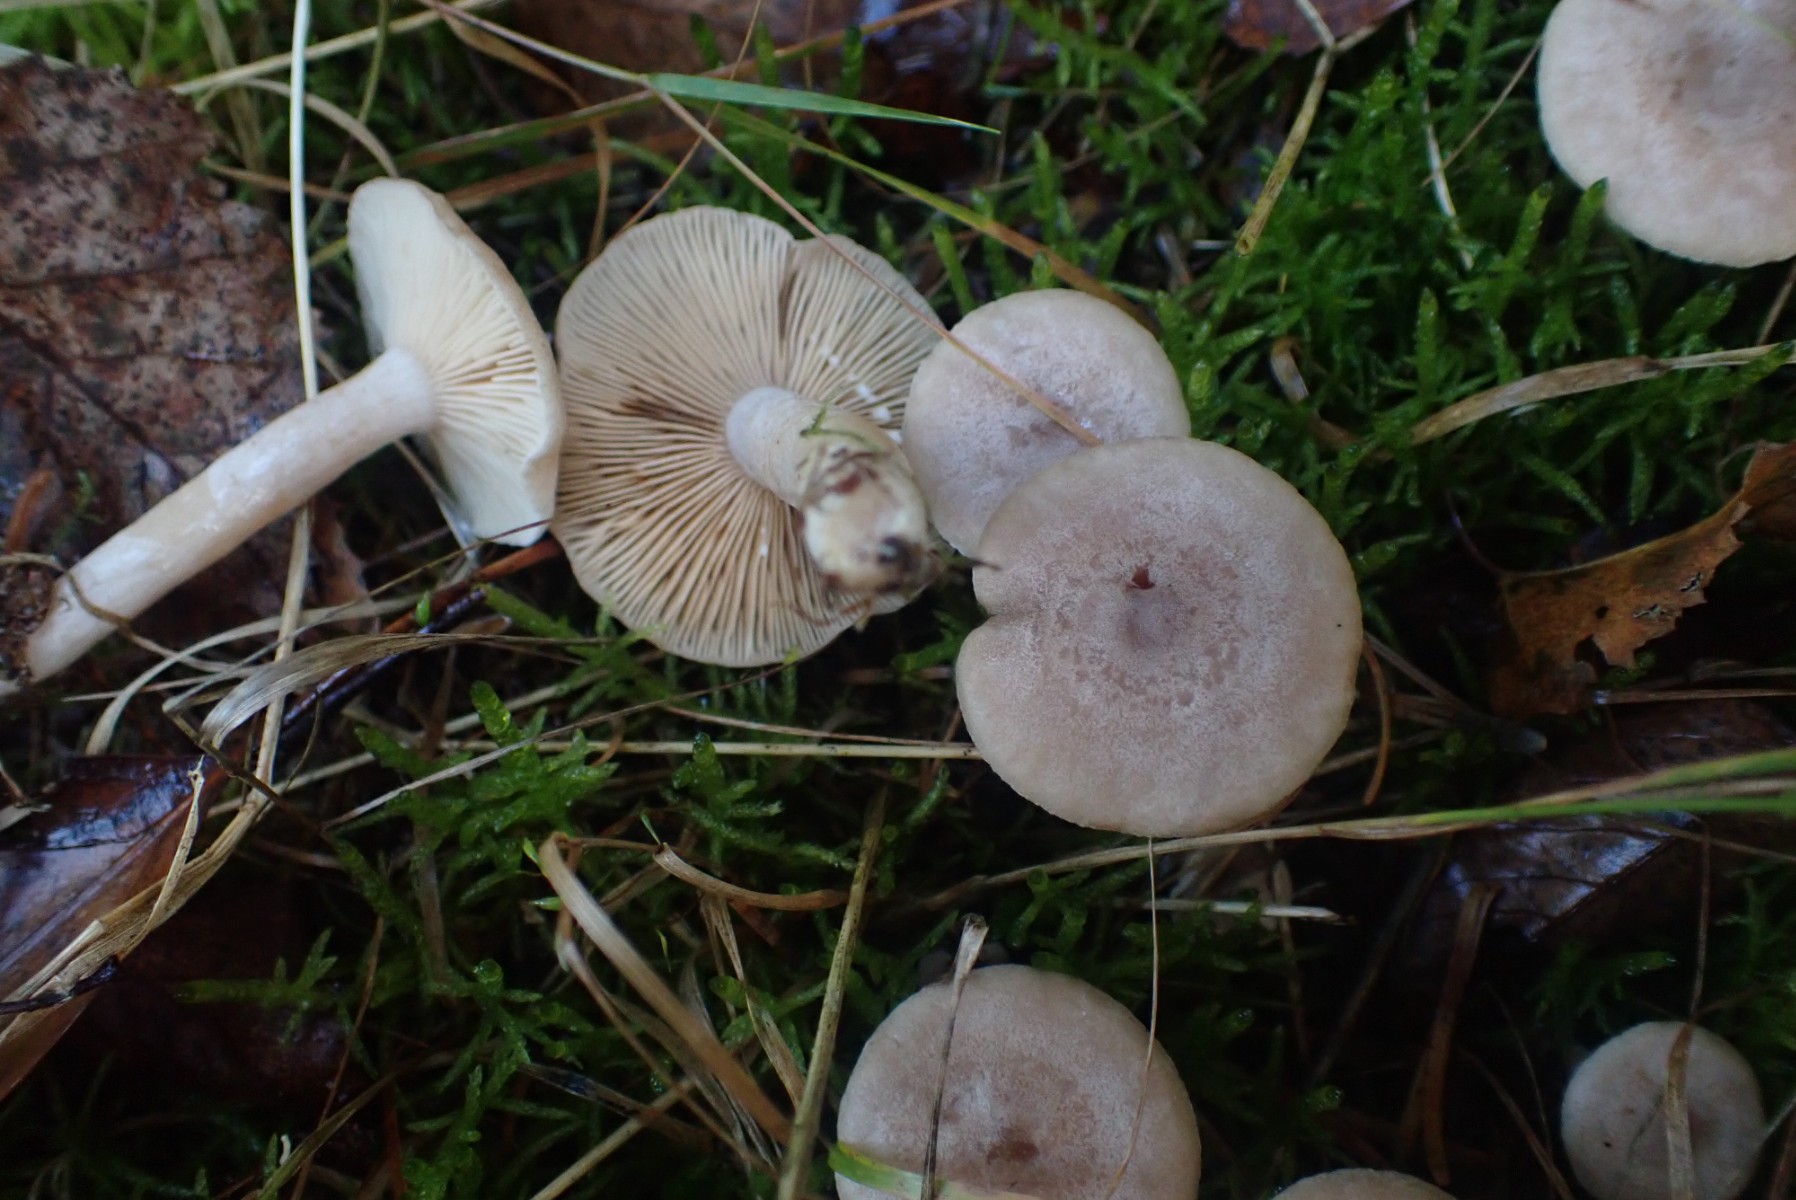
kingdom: Fungi
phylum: Basidiomycota
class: Agaricomycetes
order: Russulales
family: Russulaceae
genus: Lactarius
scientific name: Lactarius glyciosmus
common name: kokos-mælkehat
